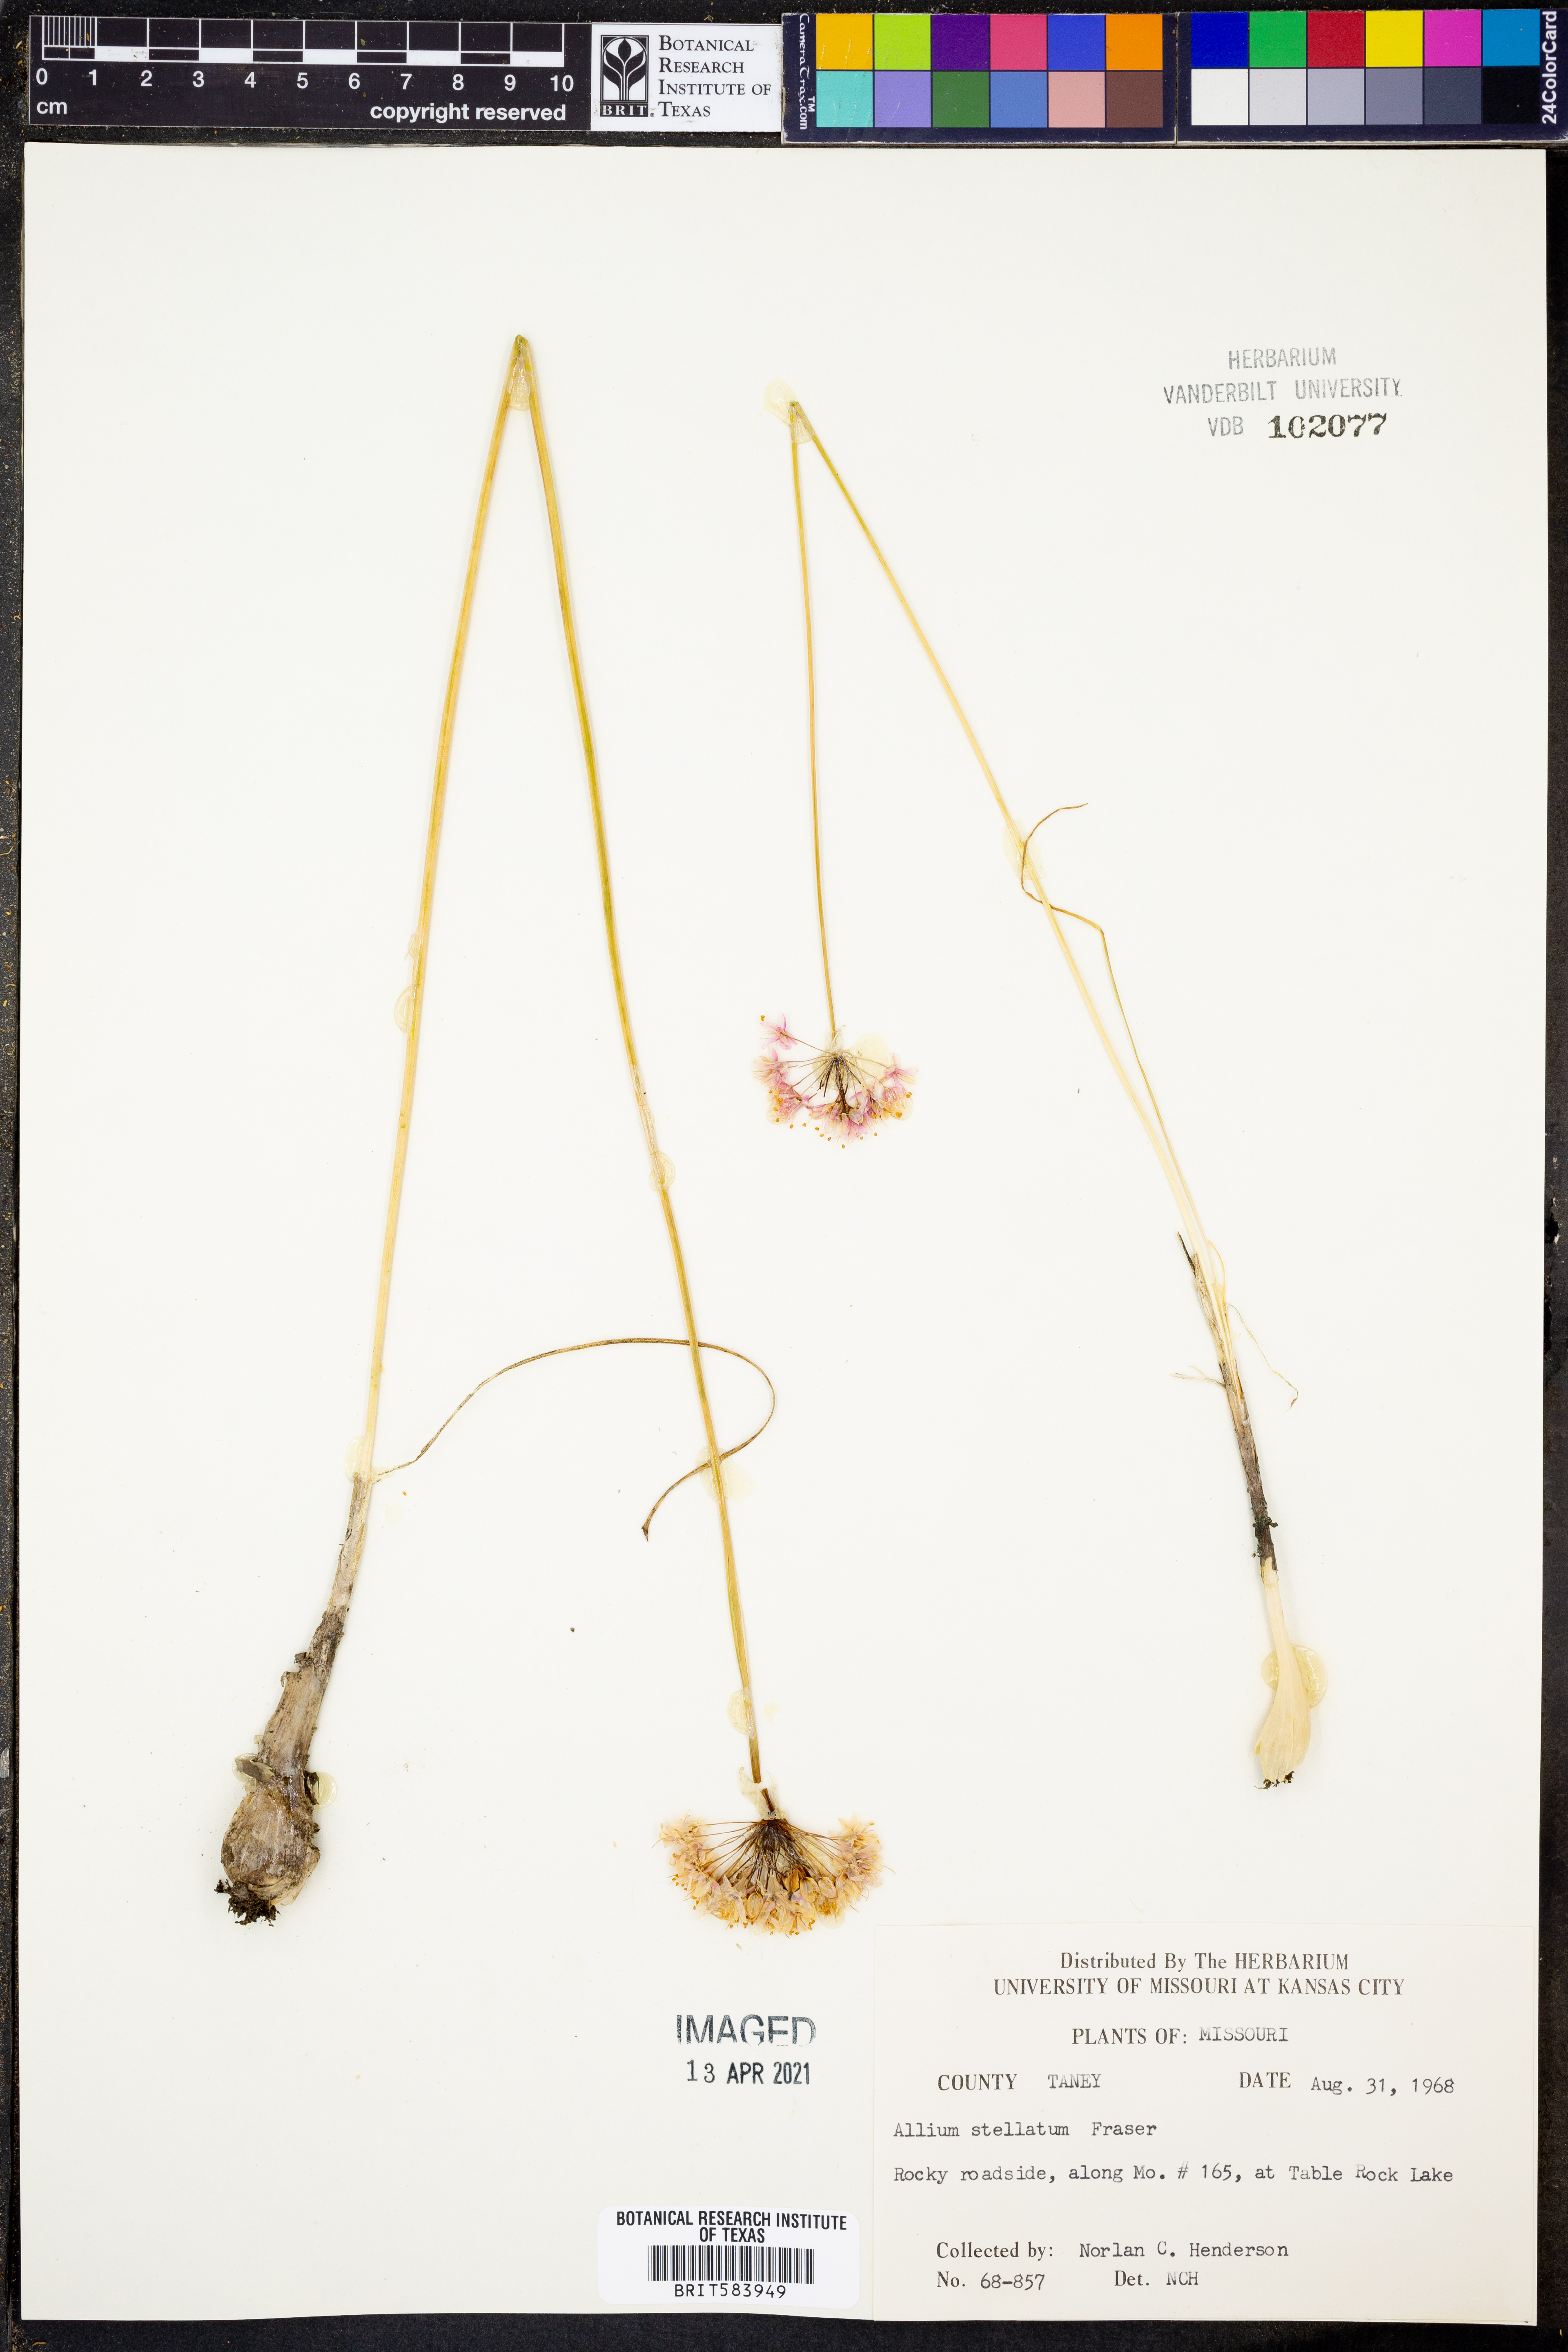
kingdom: Plantae
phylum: Tracheophyta
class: Liliopsida
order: Asparagales
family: Amaryllidaceae
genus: Allium
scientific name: Allium stellatum
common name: Autumn onion
